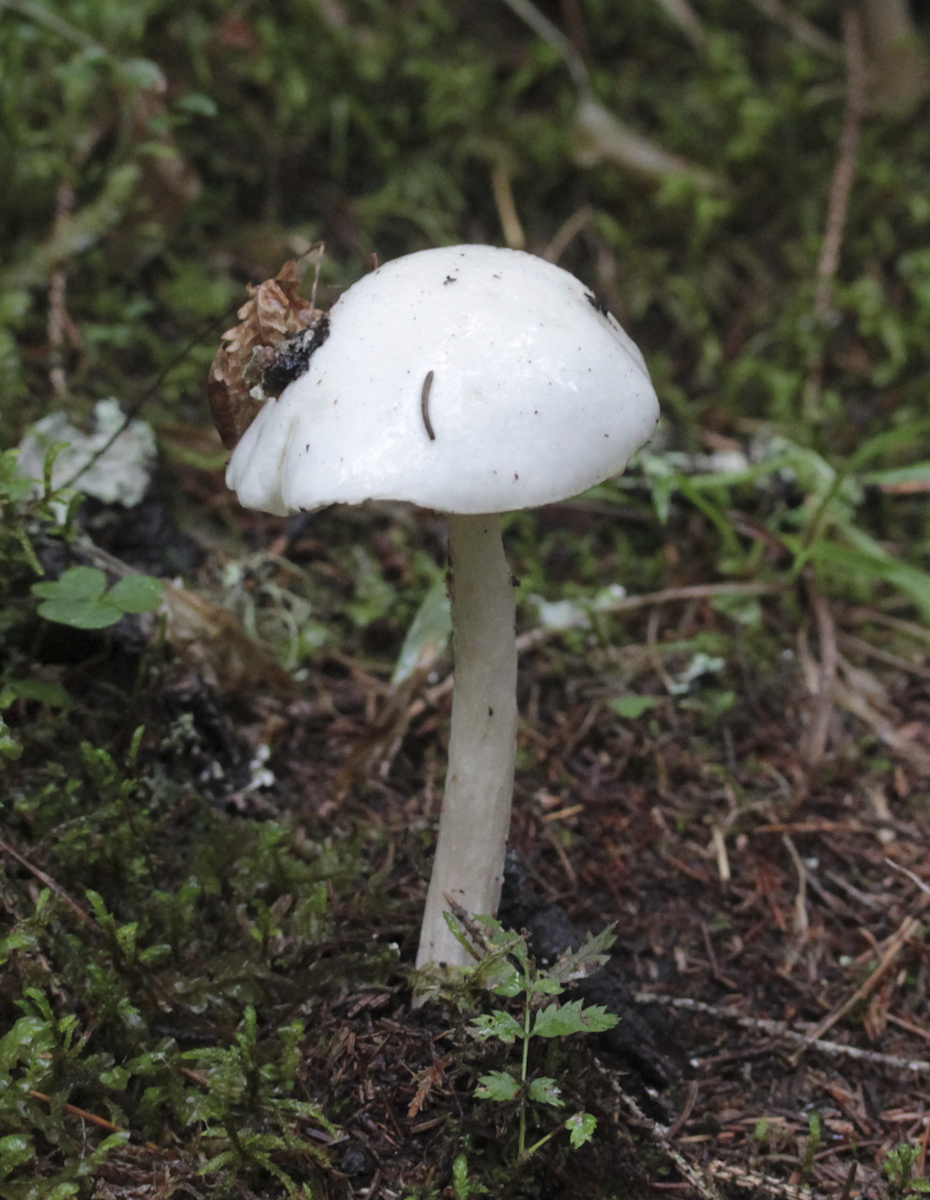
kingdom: Fungi
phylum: Basidiomycota
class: Agaricomycetes
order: Agaricales
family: Amanitaceae
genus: Amanita
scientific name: Amanita virosa
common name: Destroying angel
